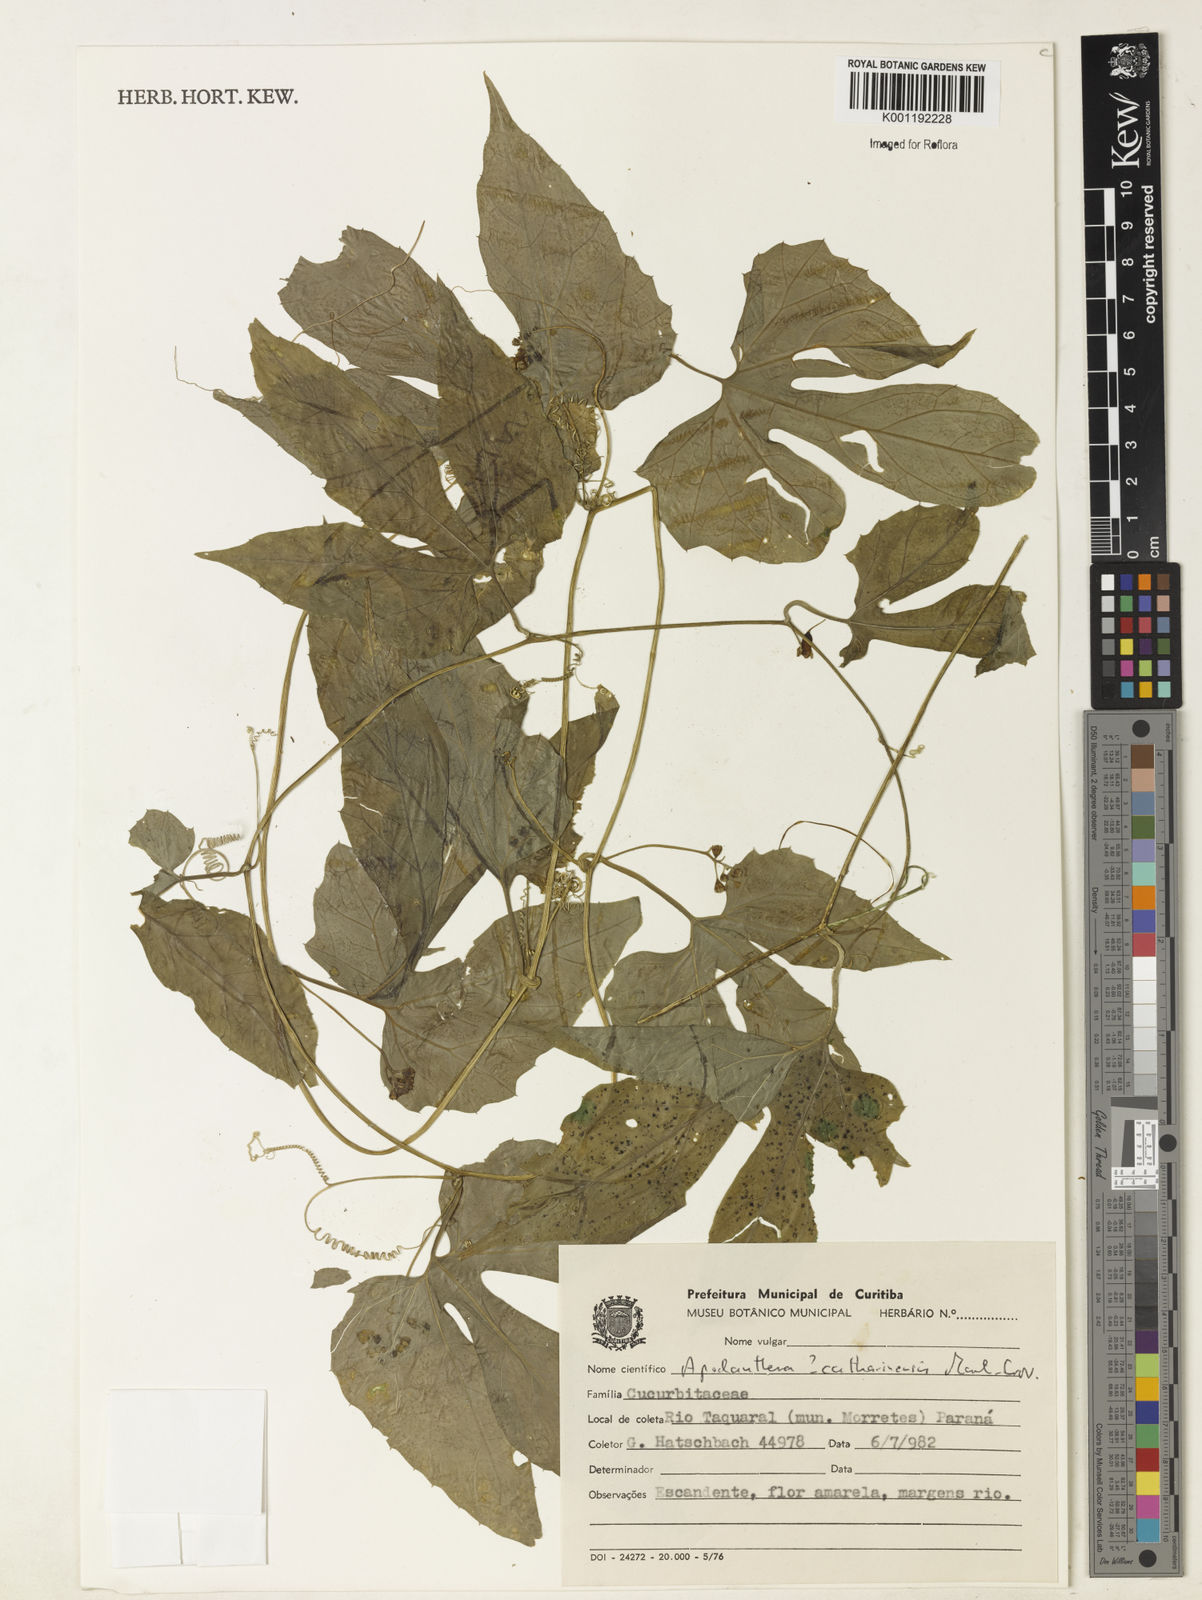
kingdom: Plantae
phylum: Tracheophyta
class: Magnoliopsida
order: Cucurbitales
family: Cucurbitaceae
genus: Apodanthera
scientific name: Apodanthera catharinensis
